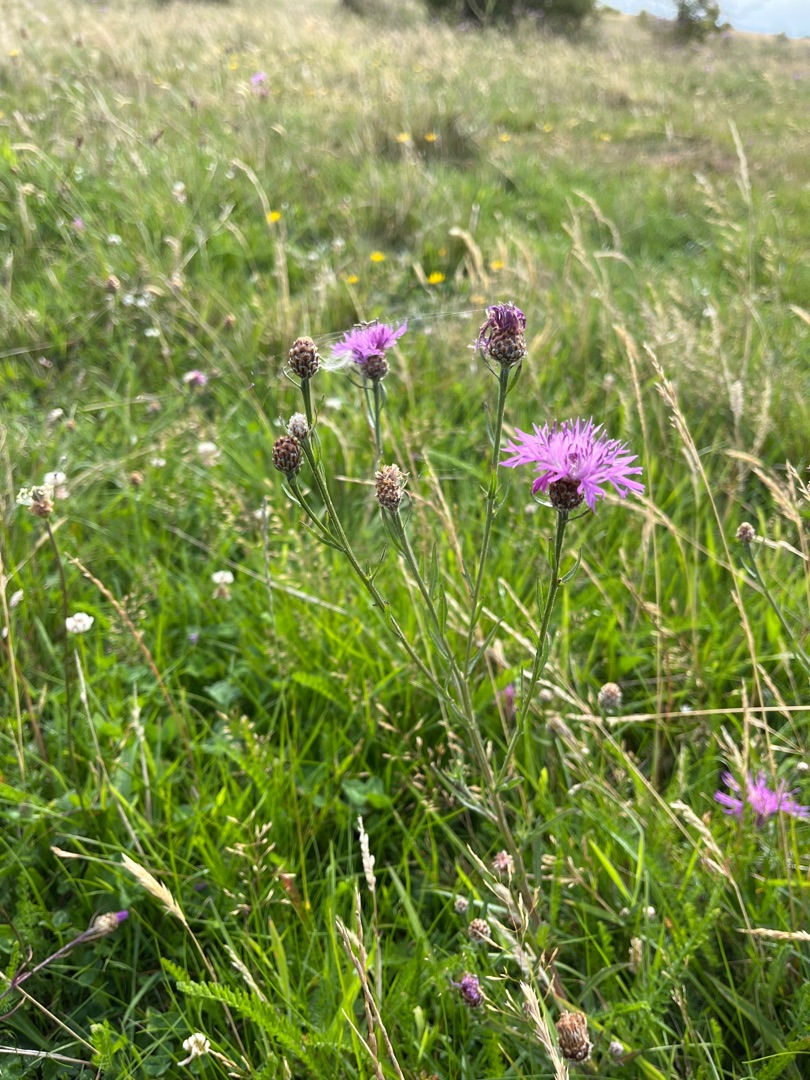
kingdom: Plantae
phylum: Tracheophyta
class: Magnoliopsida
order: Asterales
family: Asteraceae
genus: Centaurea
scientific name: Centaurea jacea
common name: Almindelig knopurt
